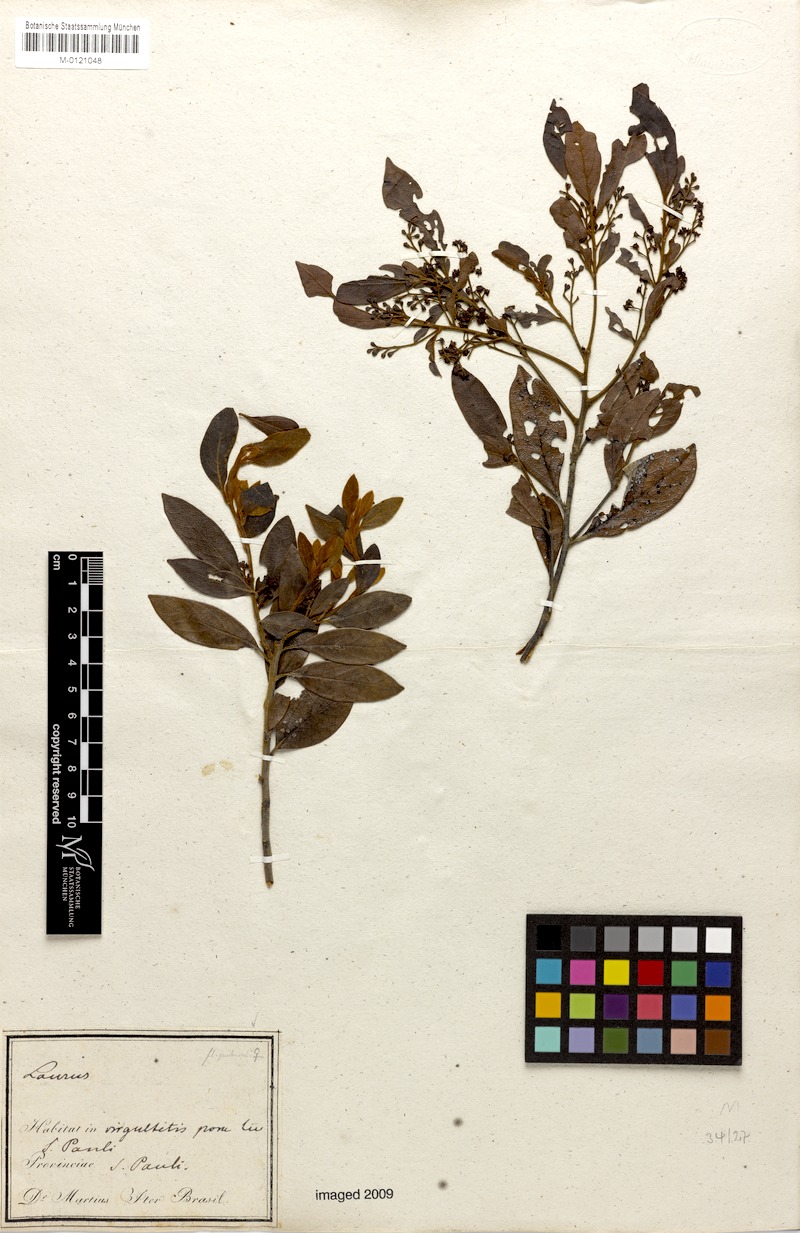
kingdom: Plantae
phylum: Tracheophyta
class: Magnoliopsida
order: Laurales
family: Lauraceae
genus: Mespilodaphne
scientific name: Mespilodaphne pulchella
